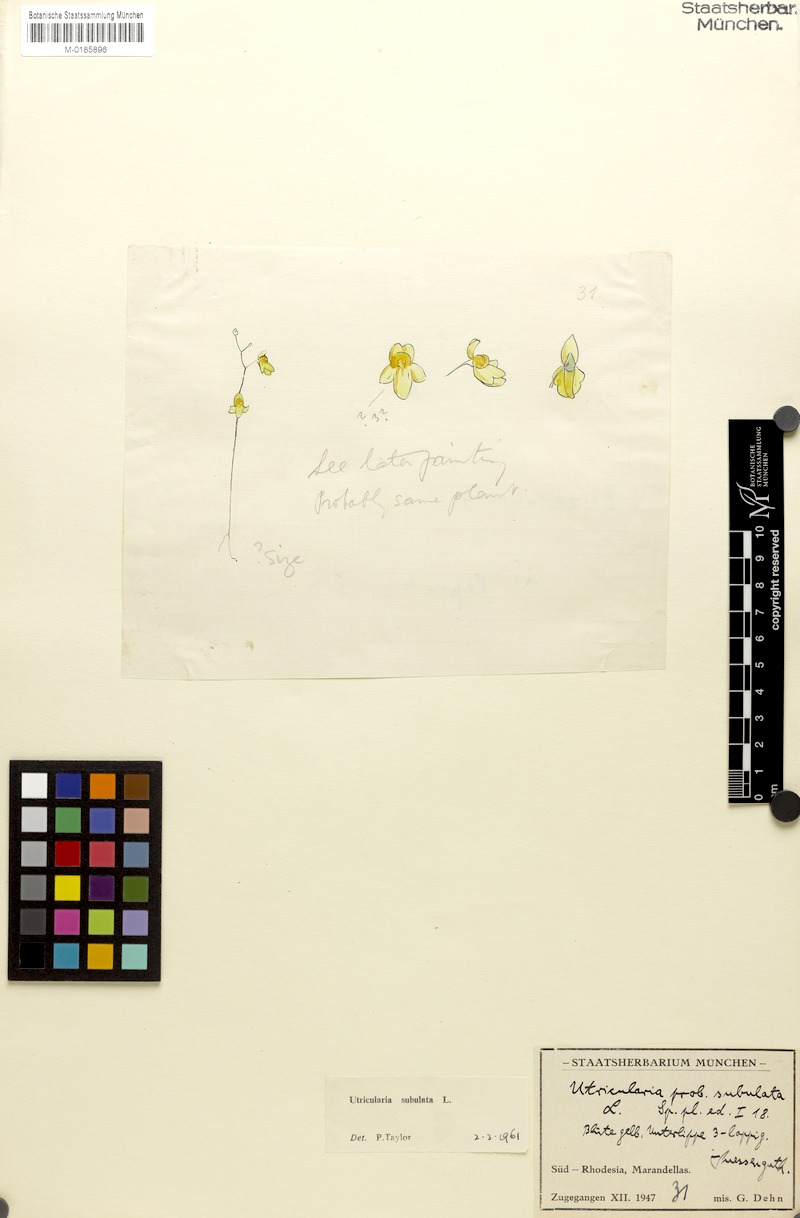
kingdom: Plantae
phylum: Tracheophyta
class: Magnoliopsida
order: Lamiales
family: Lentibulariaceae
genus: Utricularia
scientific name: Utricularia subulata
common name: Tiny bladderwort
